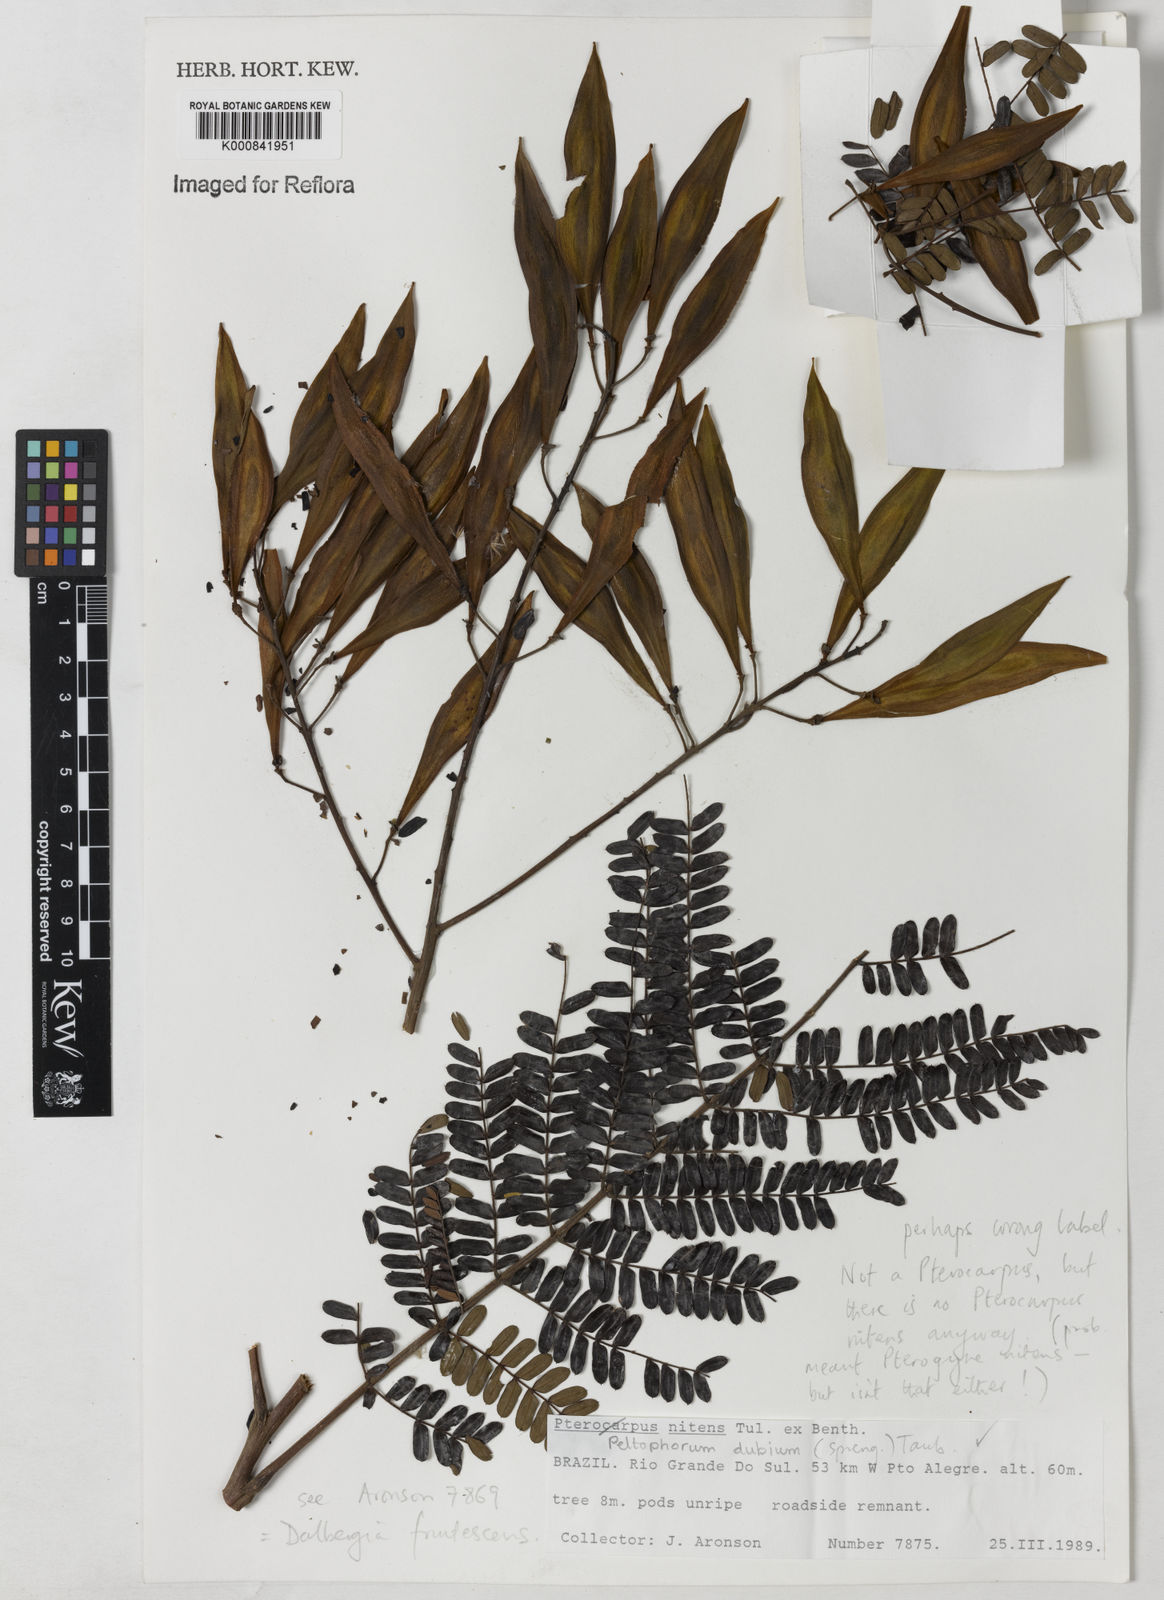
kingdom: Plantae
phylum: Tracheophyta
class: Magnoliopsida
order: Fabales
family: Fabaceae
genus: Peltophorum
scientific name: Peltophorum dubium
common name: Horsebush
